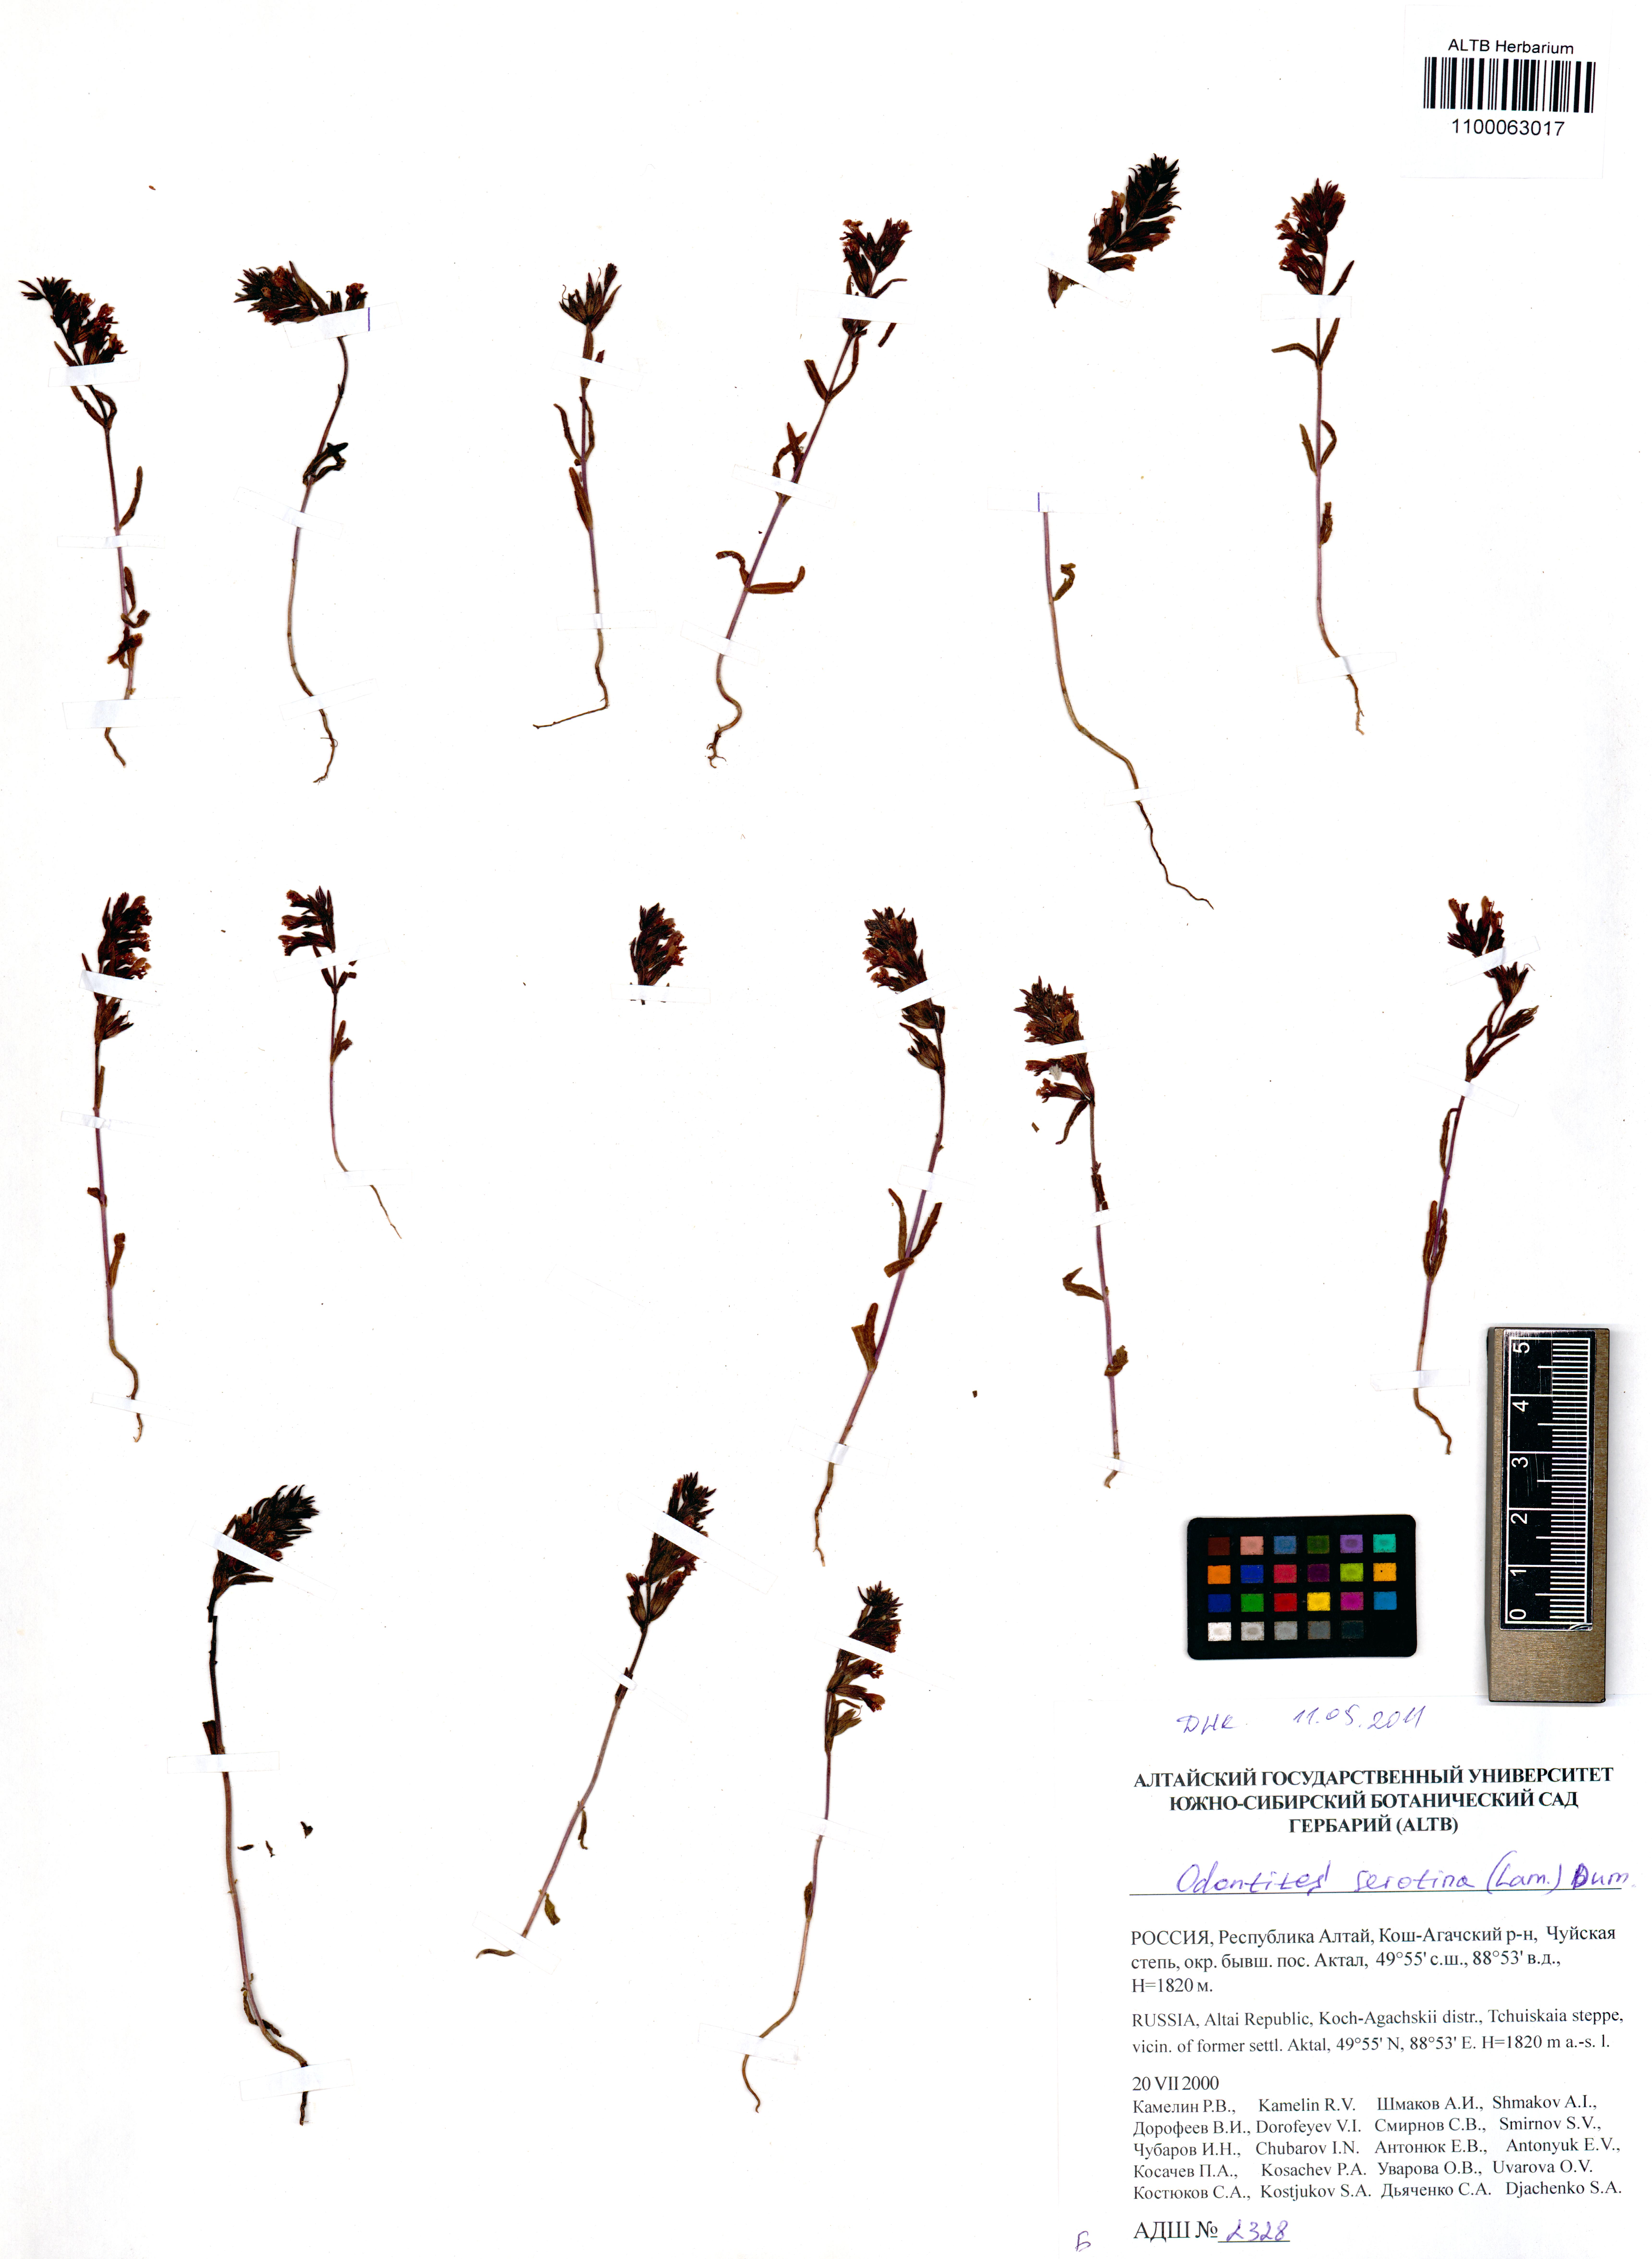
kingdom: Plantae
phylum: Tracheophyta
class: Magnoliopsida
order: Lamiales
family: Orobanchaceae
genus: Odontites
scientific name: Odontites vulgaris
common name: Broomrape
